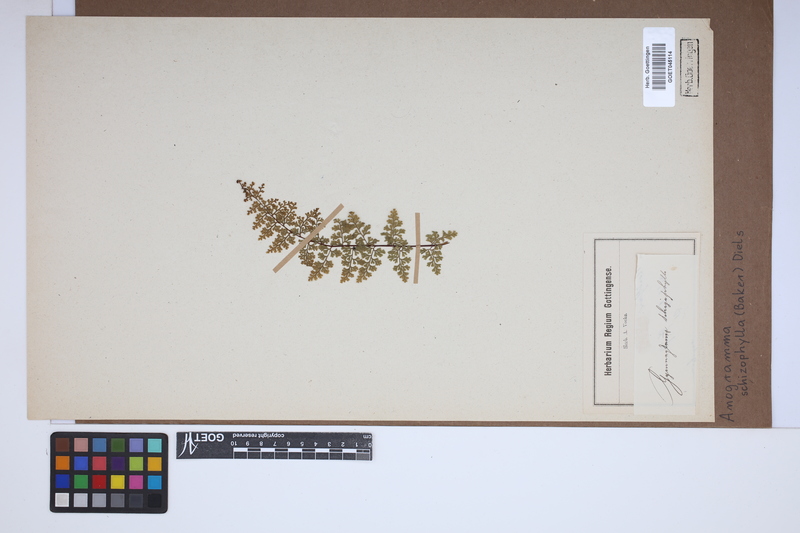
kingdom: Plantae
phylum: Tracheophyta
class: Polypodiopsida
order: Polypodiales
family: Pteridaceae
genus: Pityrogramma
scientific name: Pityrogramma schizophylla
